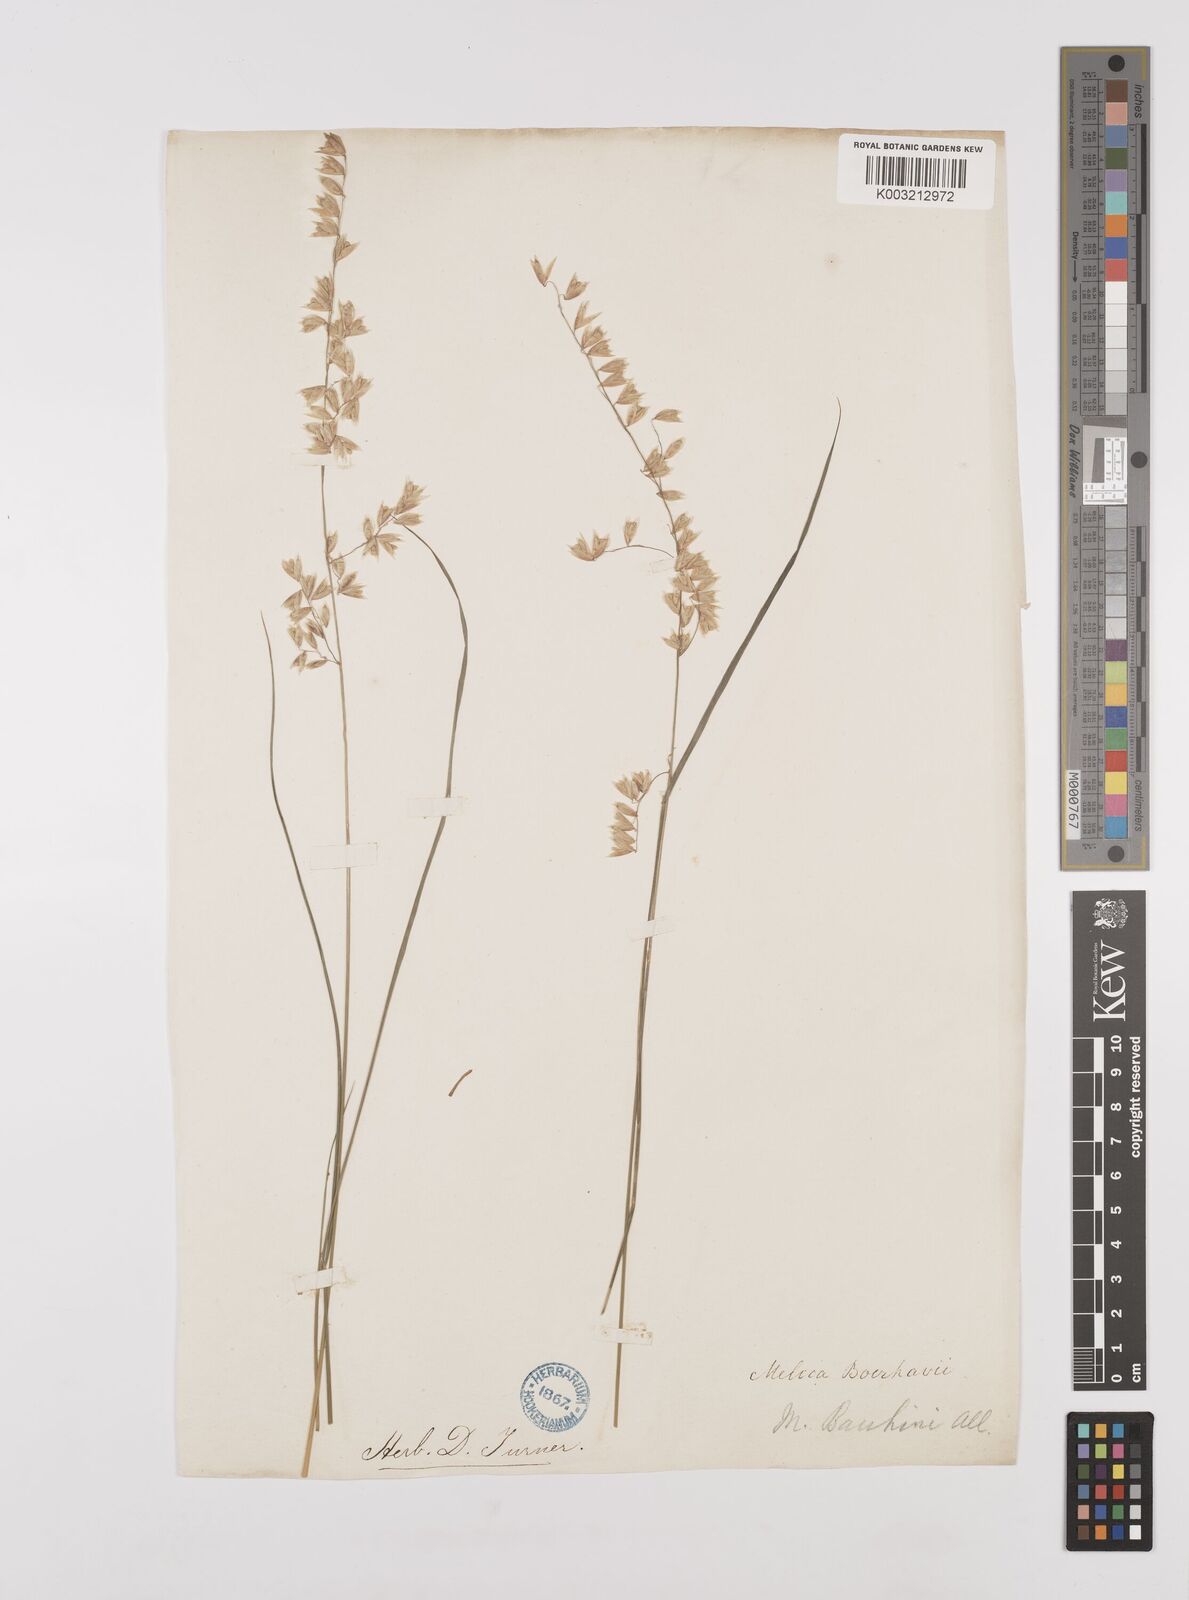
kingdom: Plantae
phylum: Tracheophyta
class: Liliopsida
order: Poales
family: Poaceae
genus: Melica
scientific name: Melica amethystina
